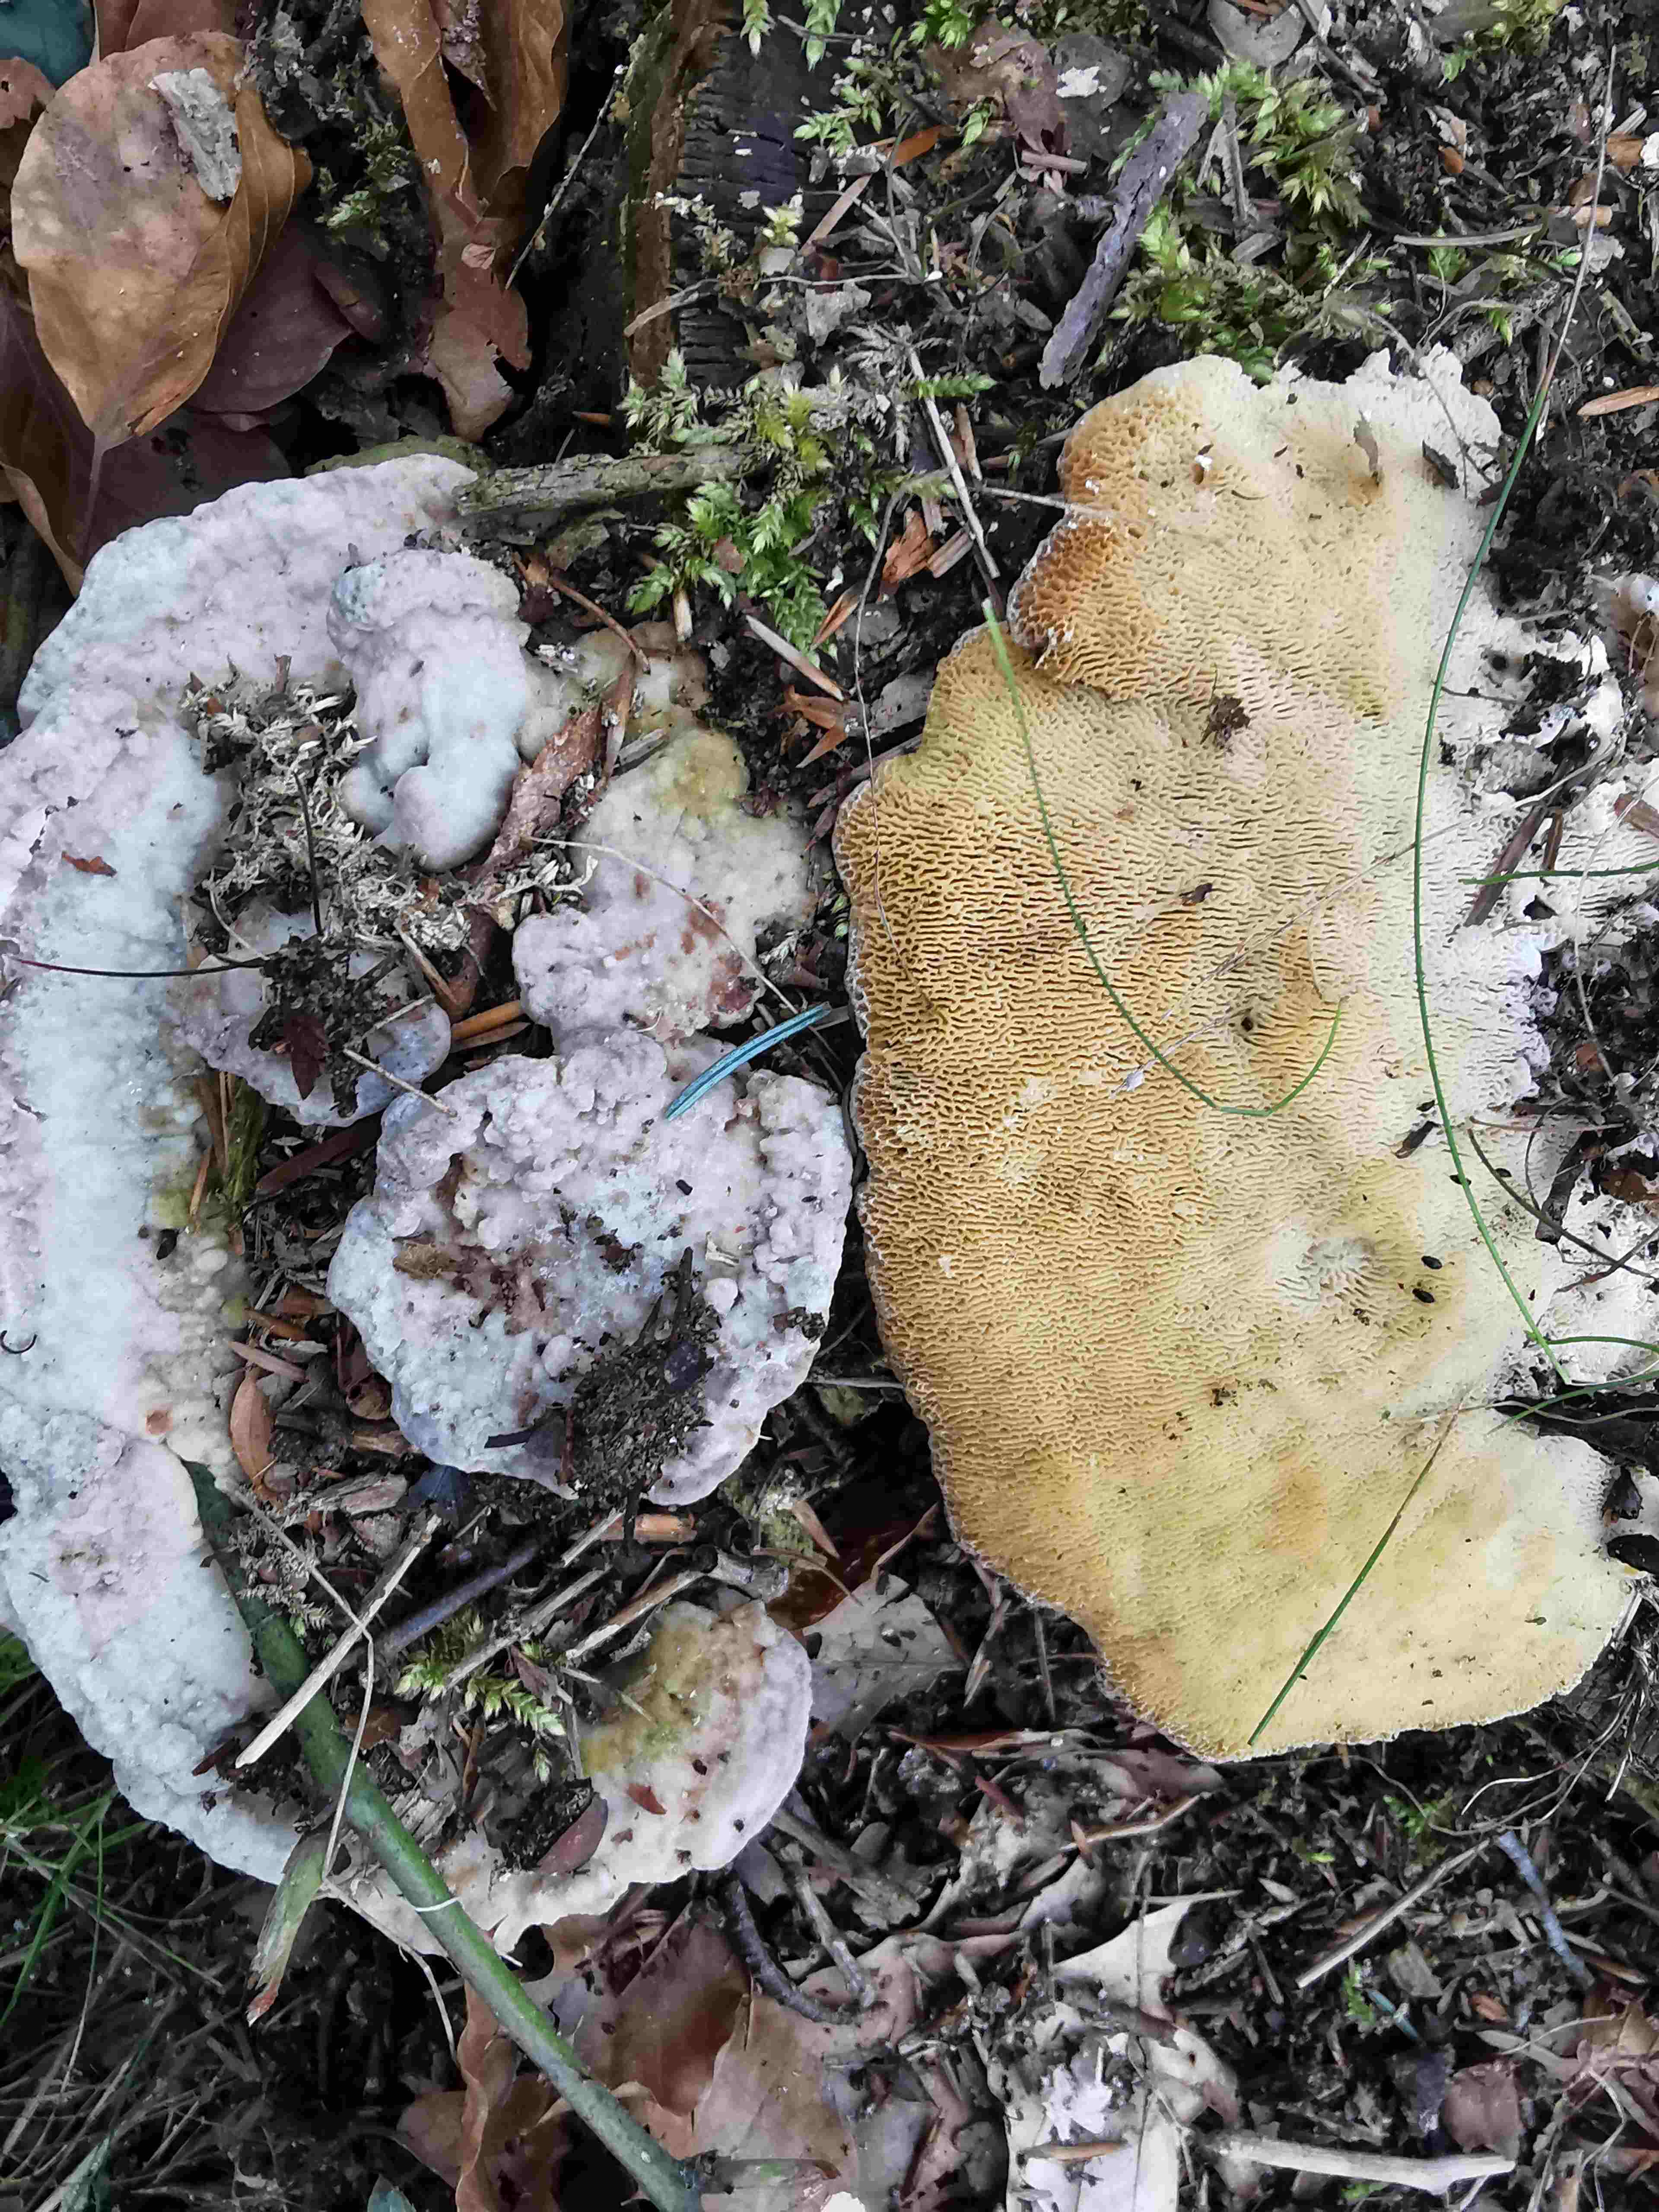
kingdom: Fungi
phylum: Basidiomycota
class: Agaricomycetes
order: Polyporales
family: Polyporaceae
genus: Trametes
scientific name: Trametes gibbosa
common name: puklet læderporesvamp
